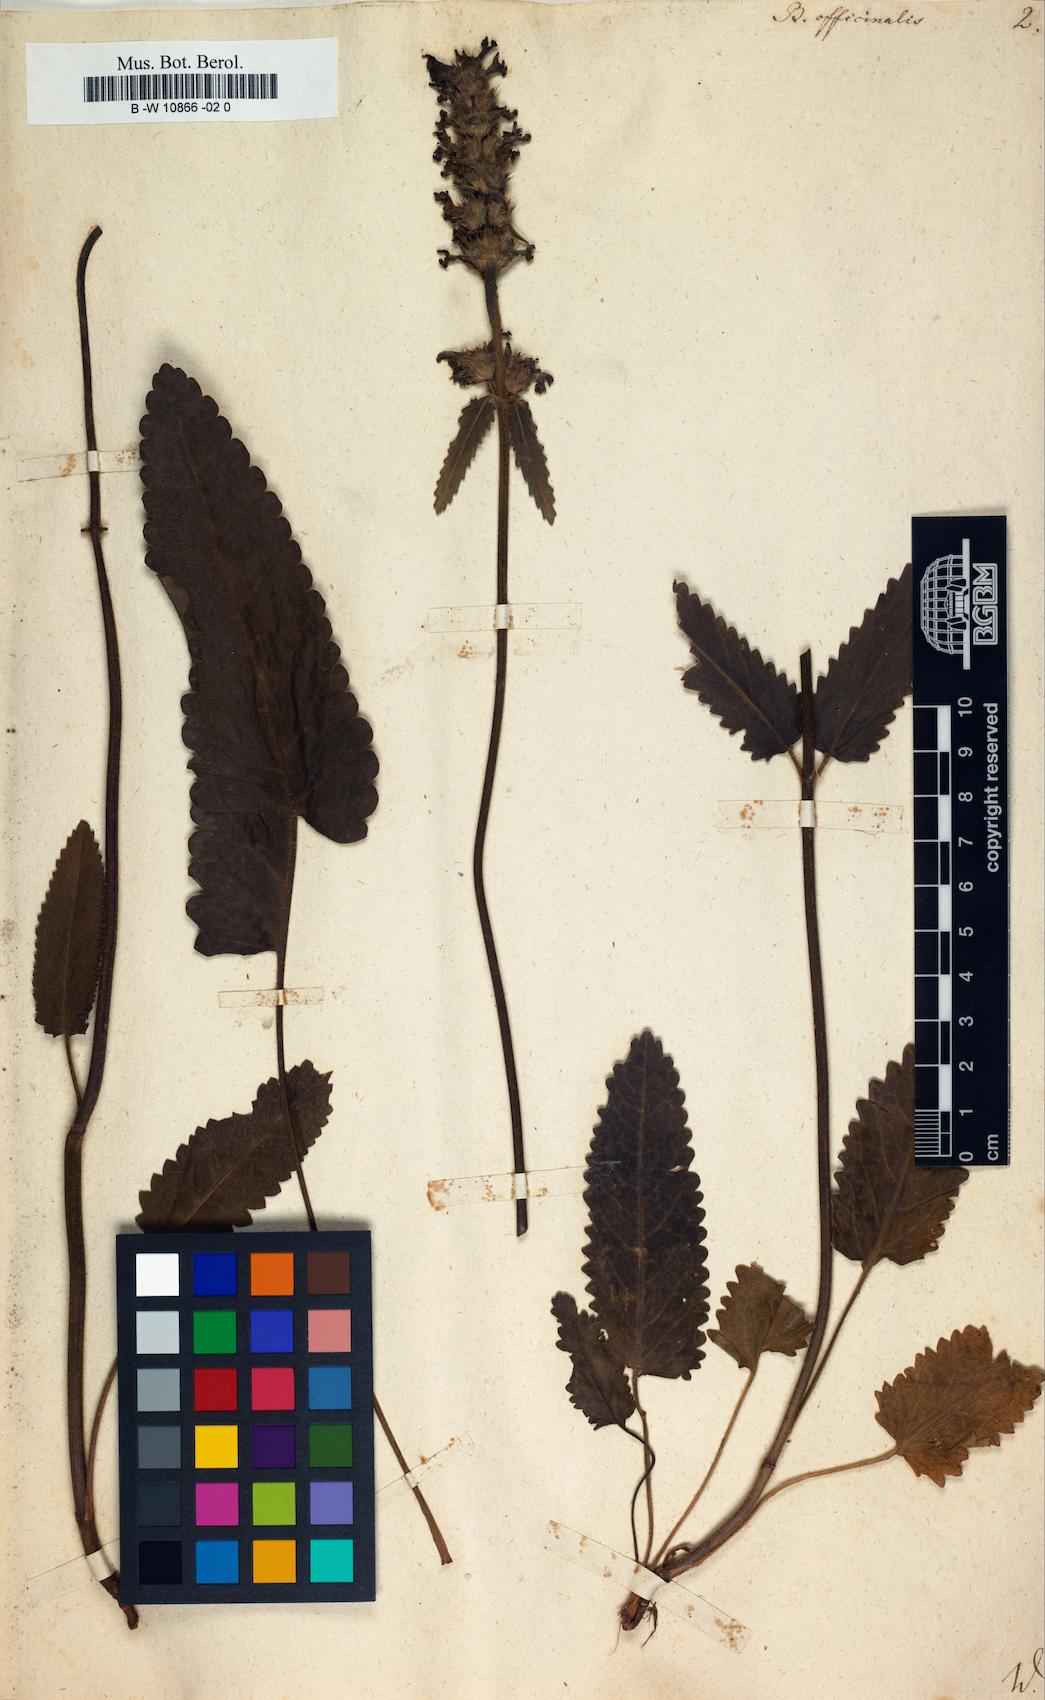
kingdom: Plantae
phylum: Tracheophyta
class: Magnoliopsida
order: Lamiales
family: Lamiaceae
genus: Betonica
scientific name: Betonica officinalis
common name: Bishop's-wort
